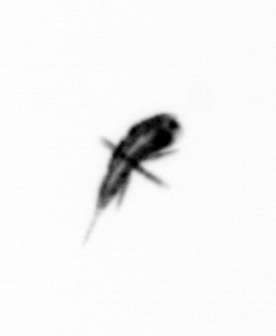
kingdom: Animalia
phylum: Arthropoda
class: Copepoda
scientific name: Copepoda
